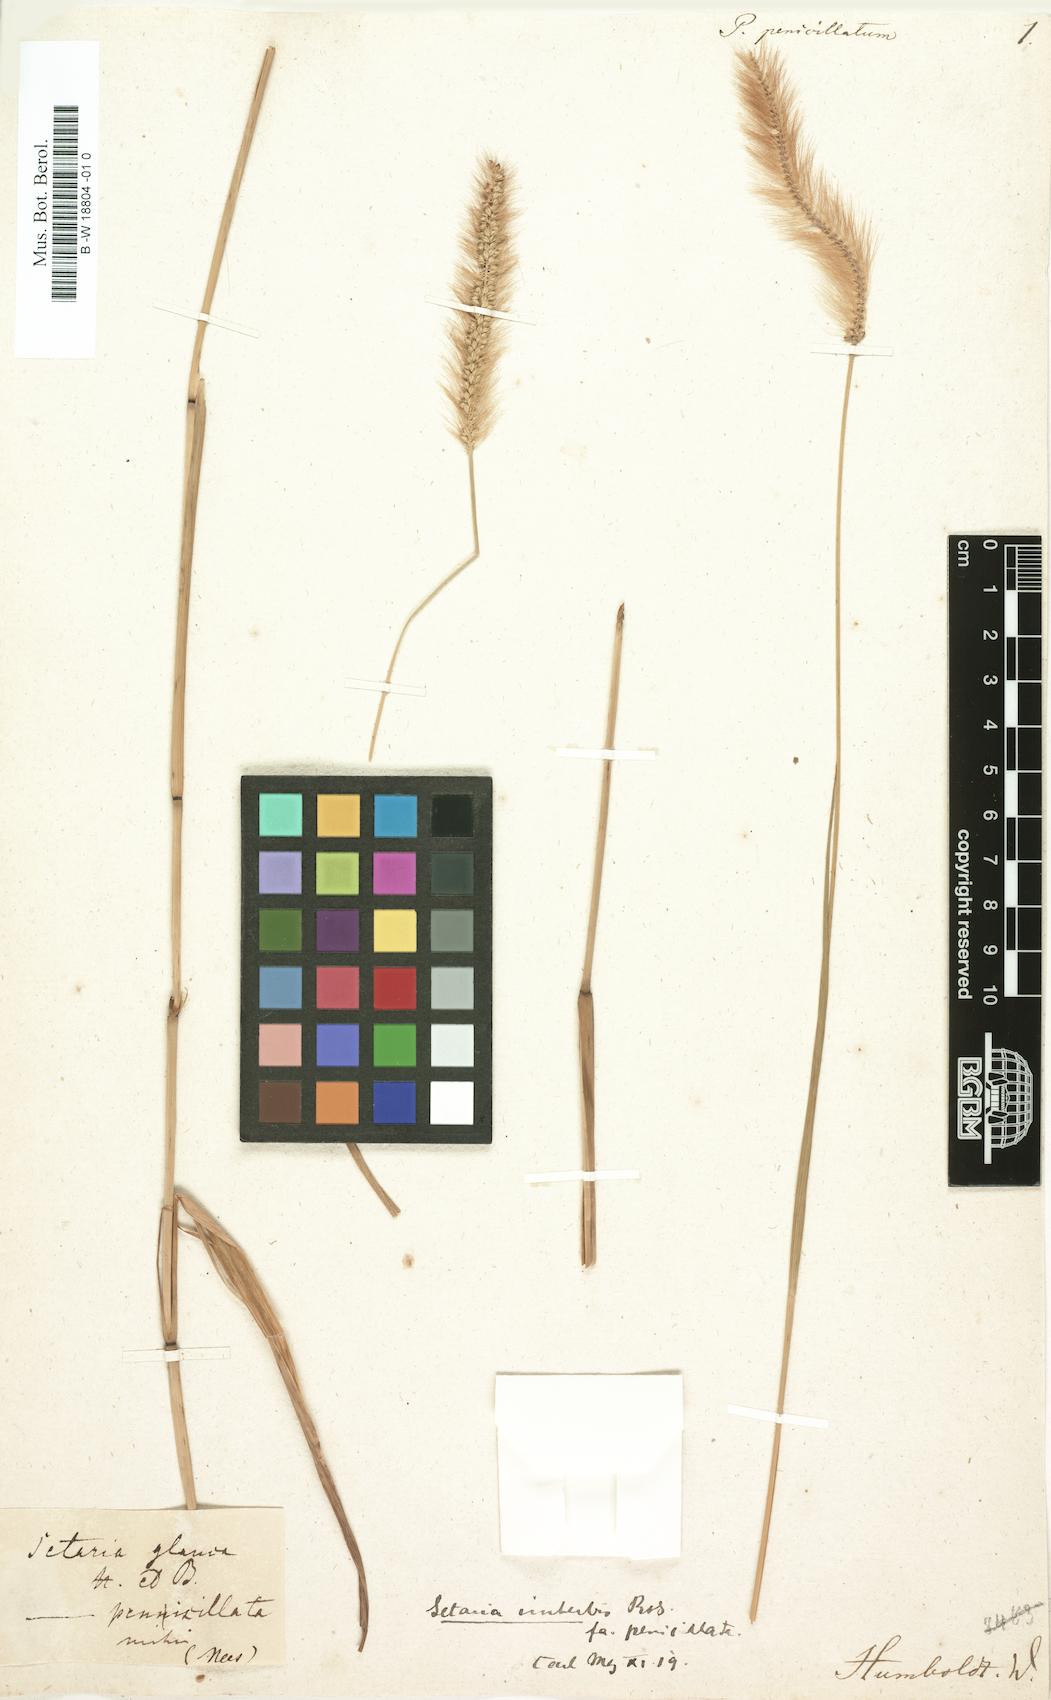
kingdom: Plantae
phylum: Tracheophyta
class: Liliopsida
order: Poales
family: Poaceae
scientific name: Poaceae
